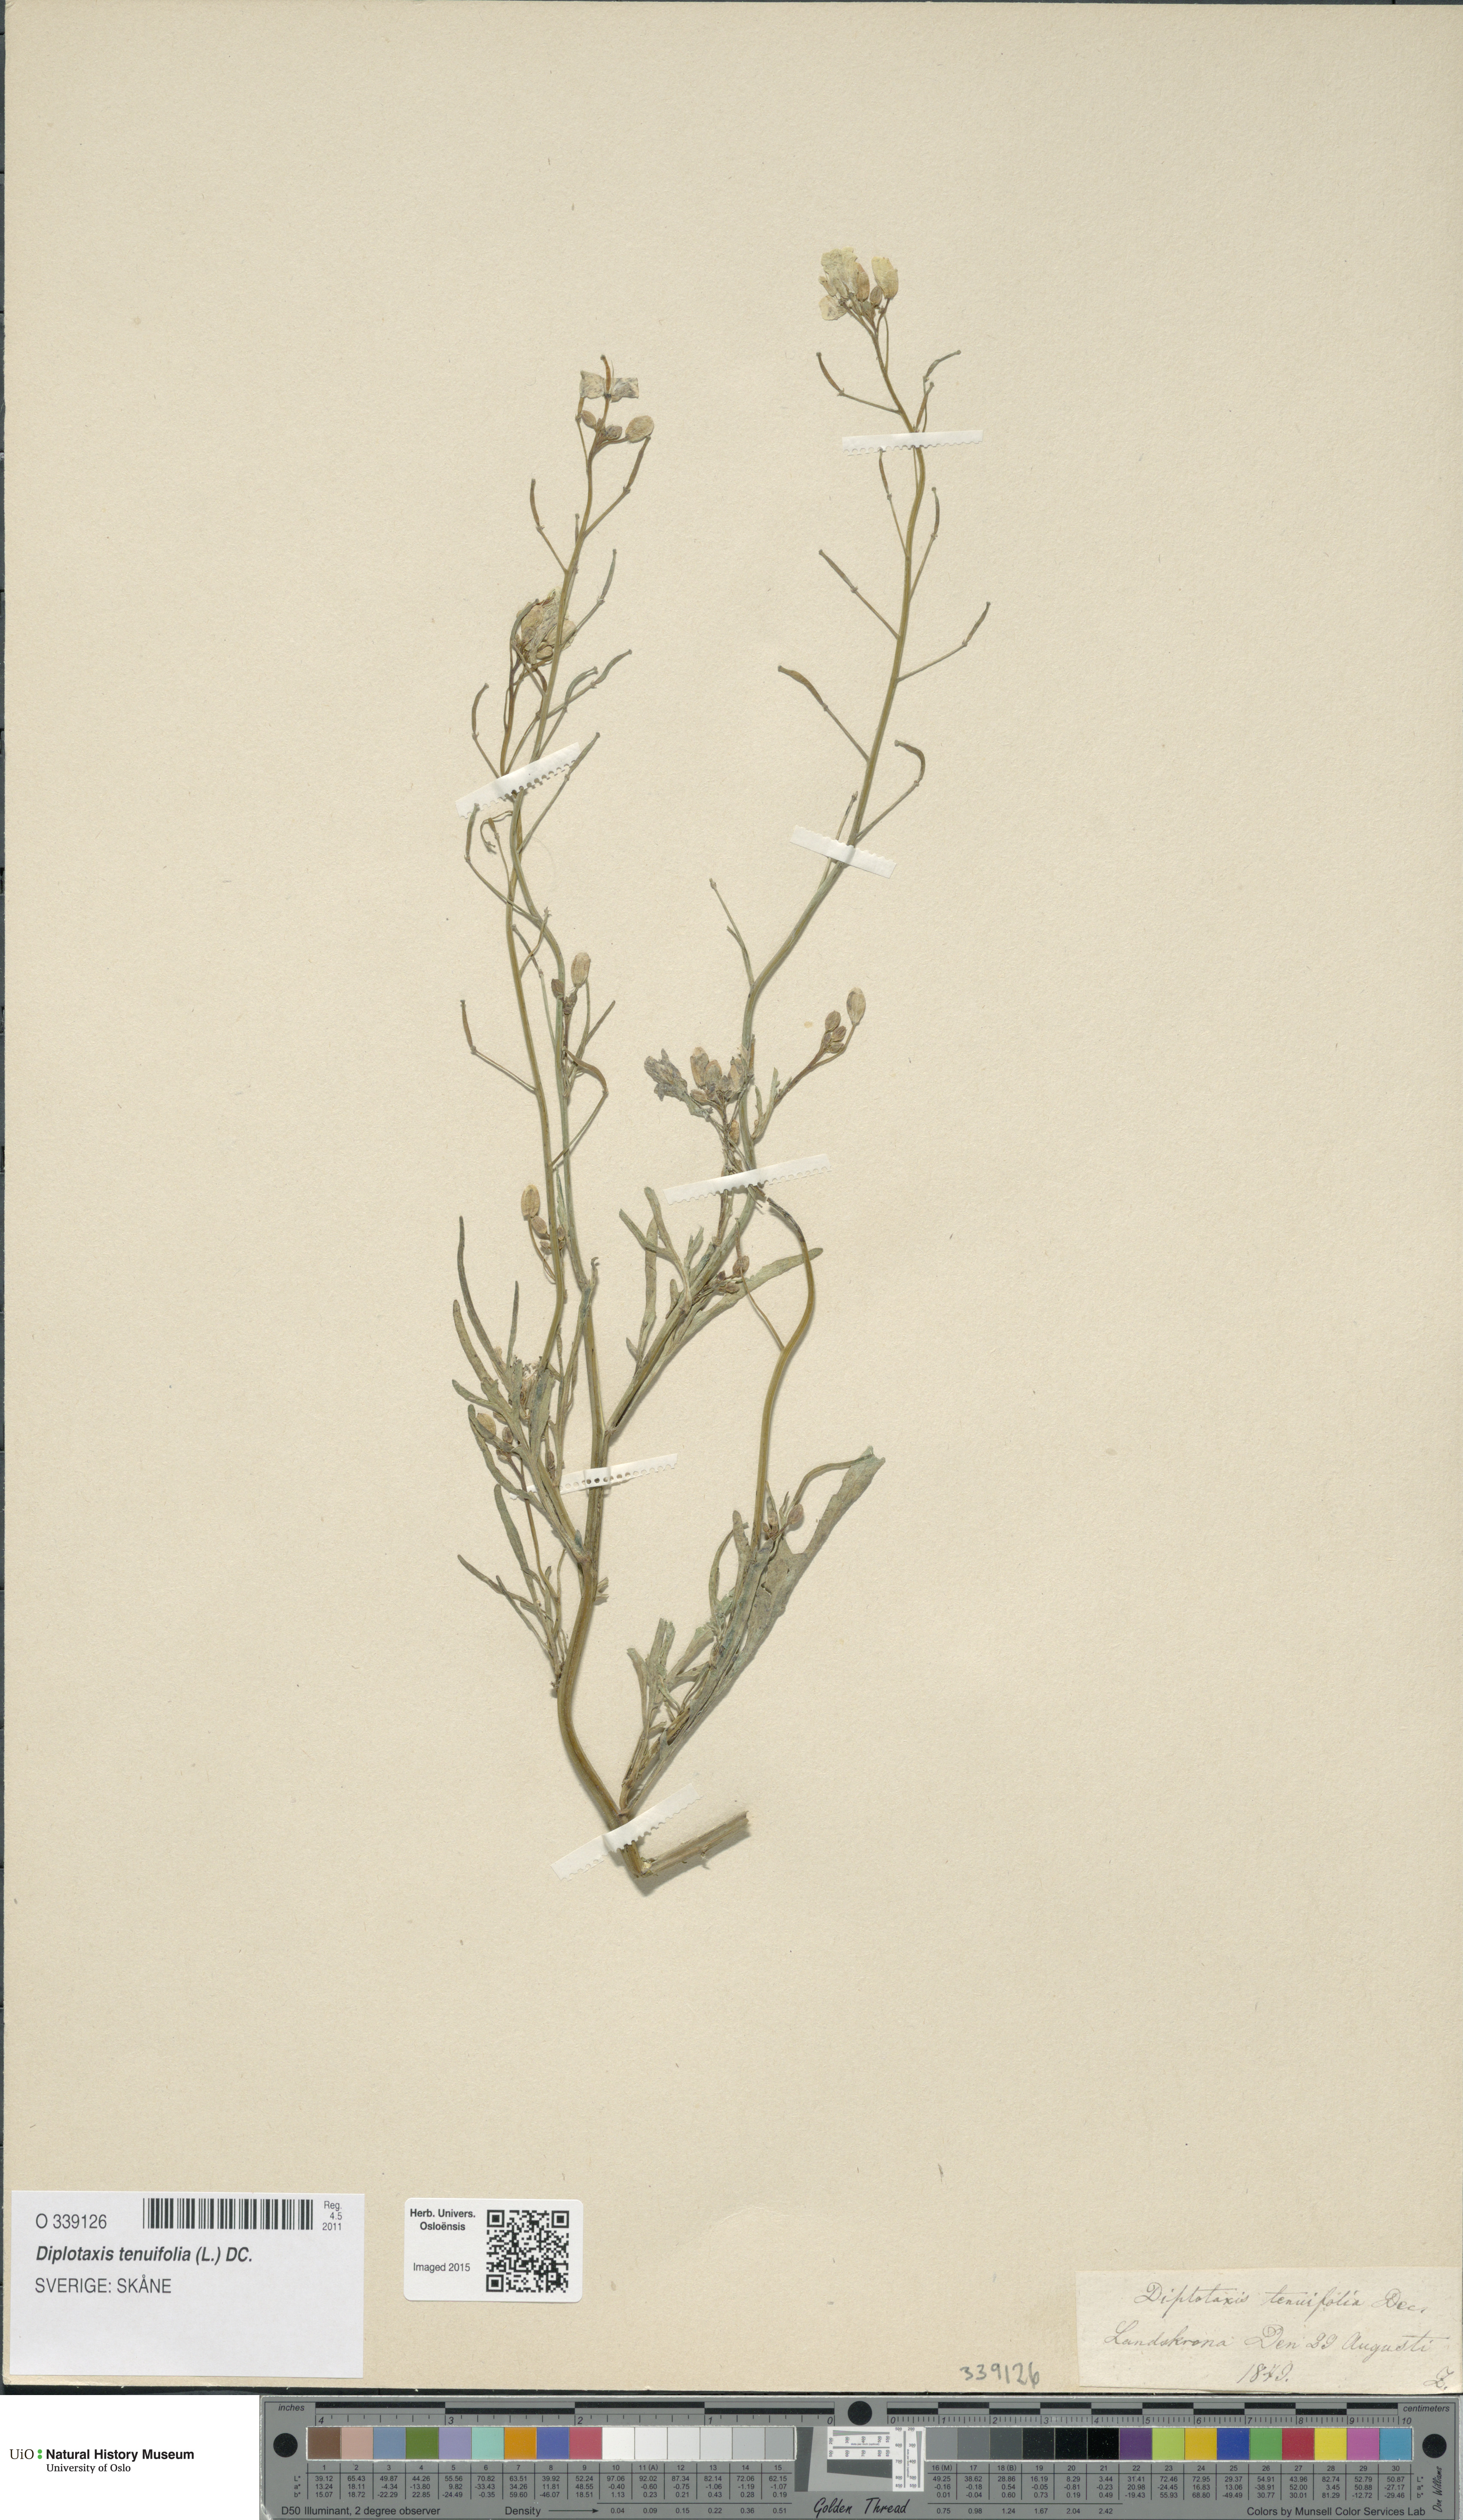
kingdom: Plantae
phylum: Tracheophyta
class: Magnoliopsida
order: Brassicales
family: Brassicaceae
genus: Diplotaxis
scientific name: Diplotaxis tenuifolia
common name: Perennial wall-rocket
